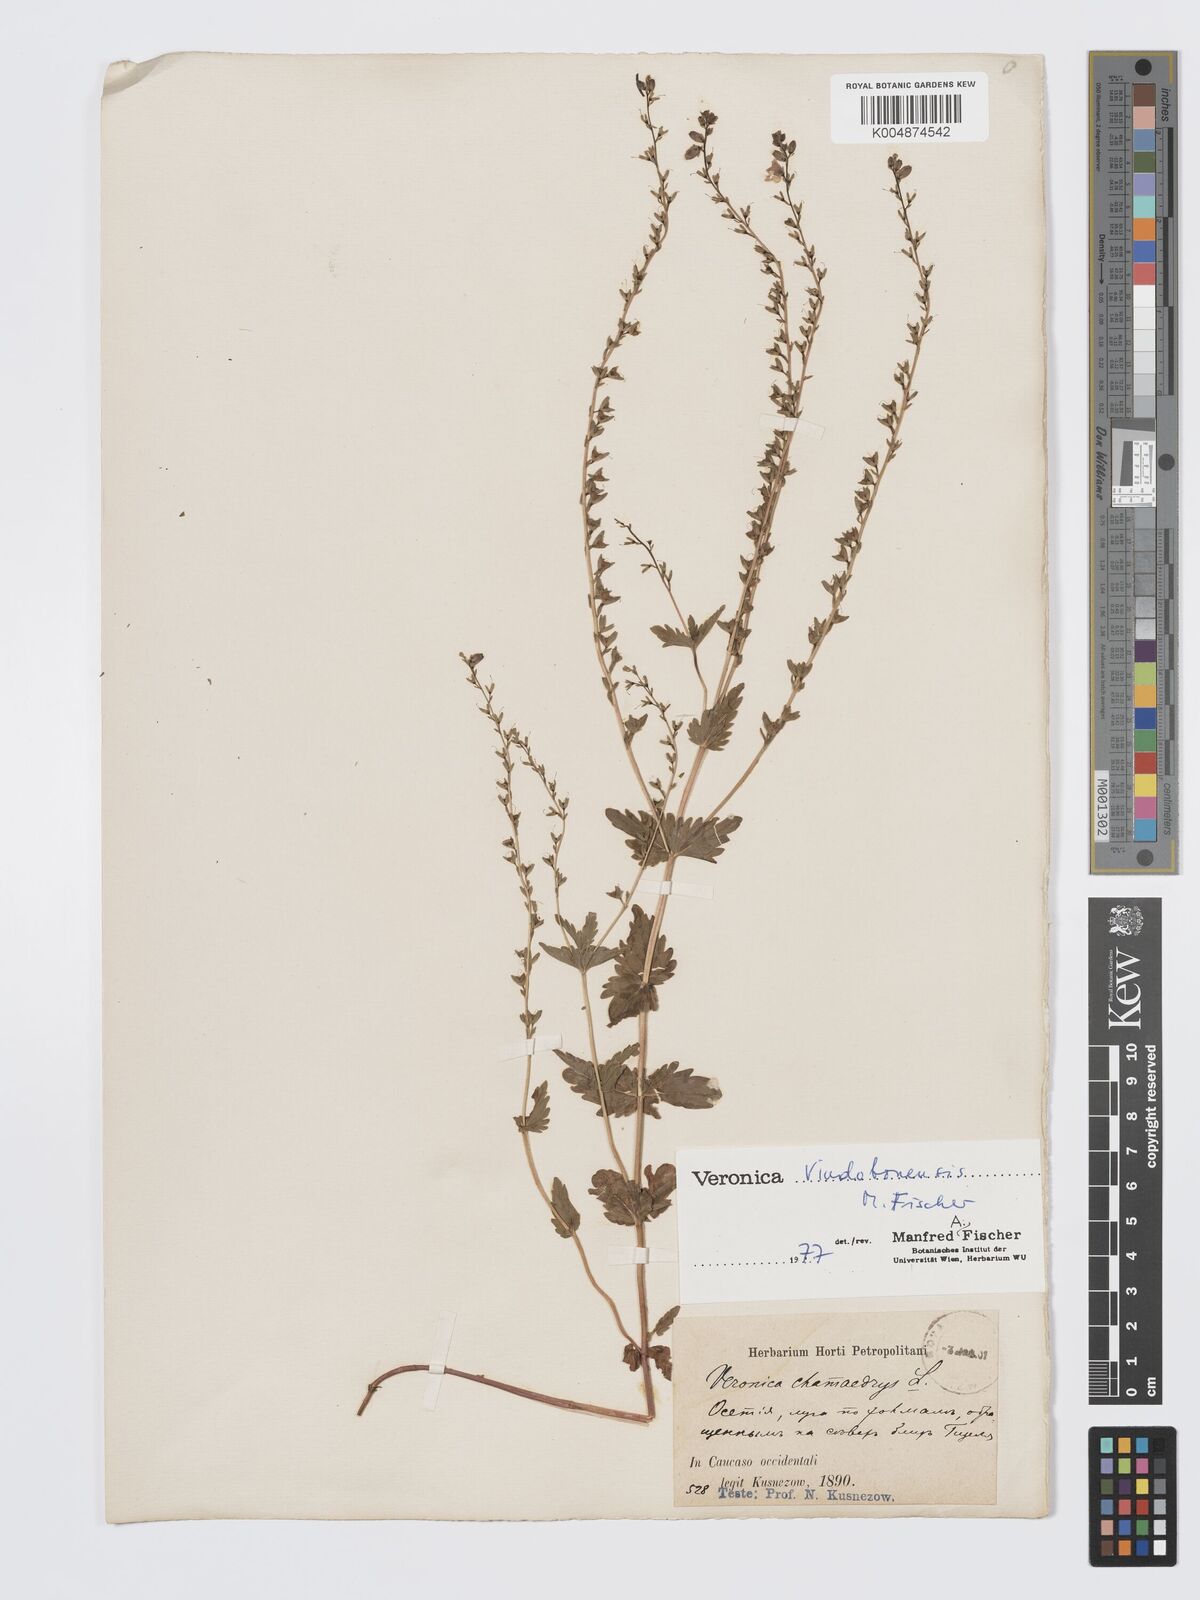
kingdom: Plantae
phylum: Tracheophyta
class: Magnoliopsida
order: Lamiales
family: Plantaginaceae
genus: Veronica
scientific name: Veronica vindobonensis
